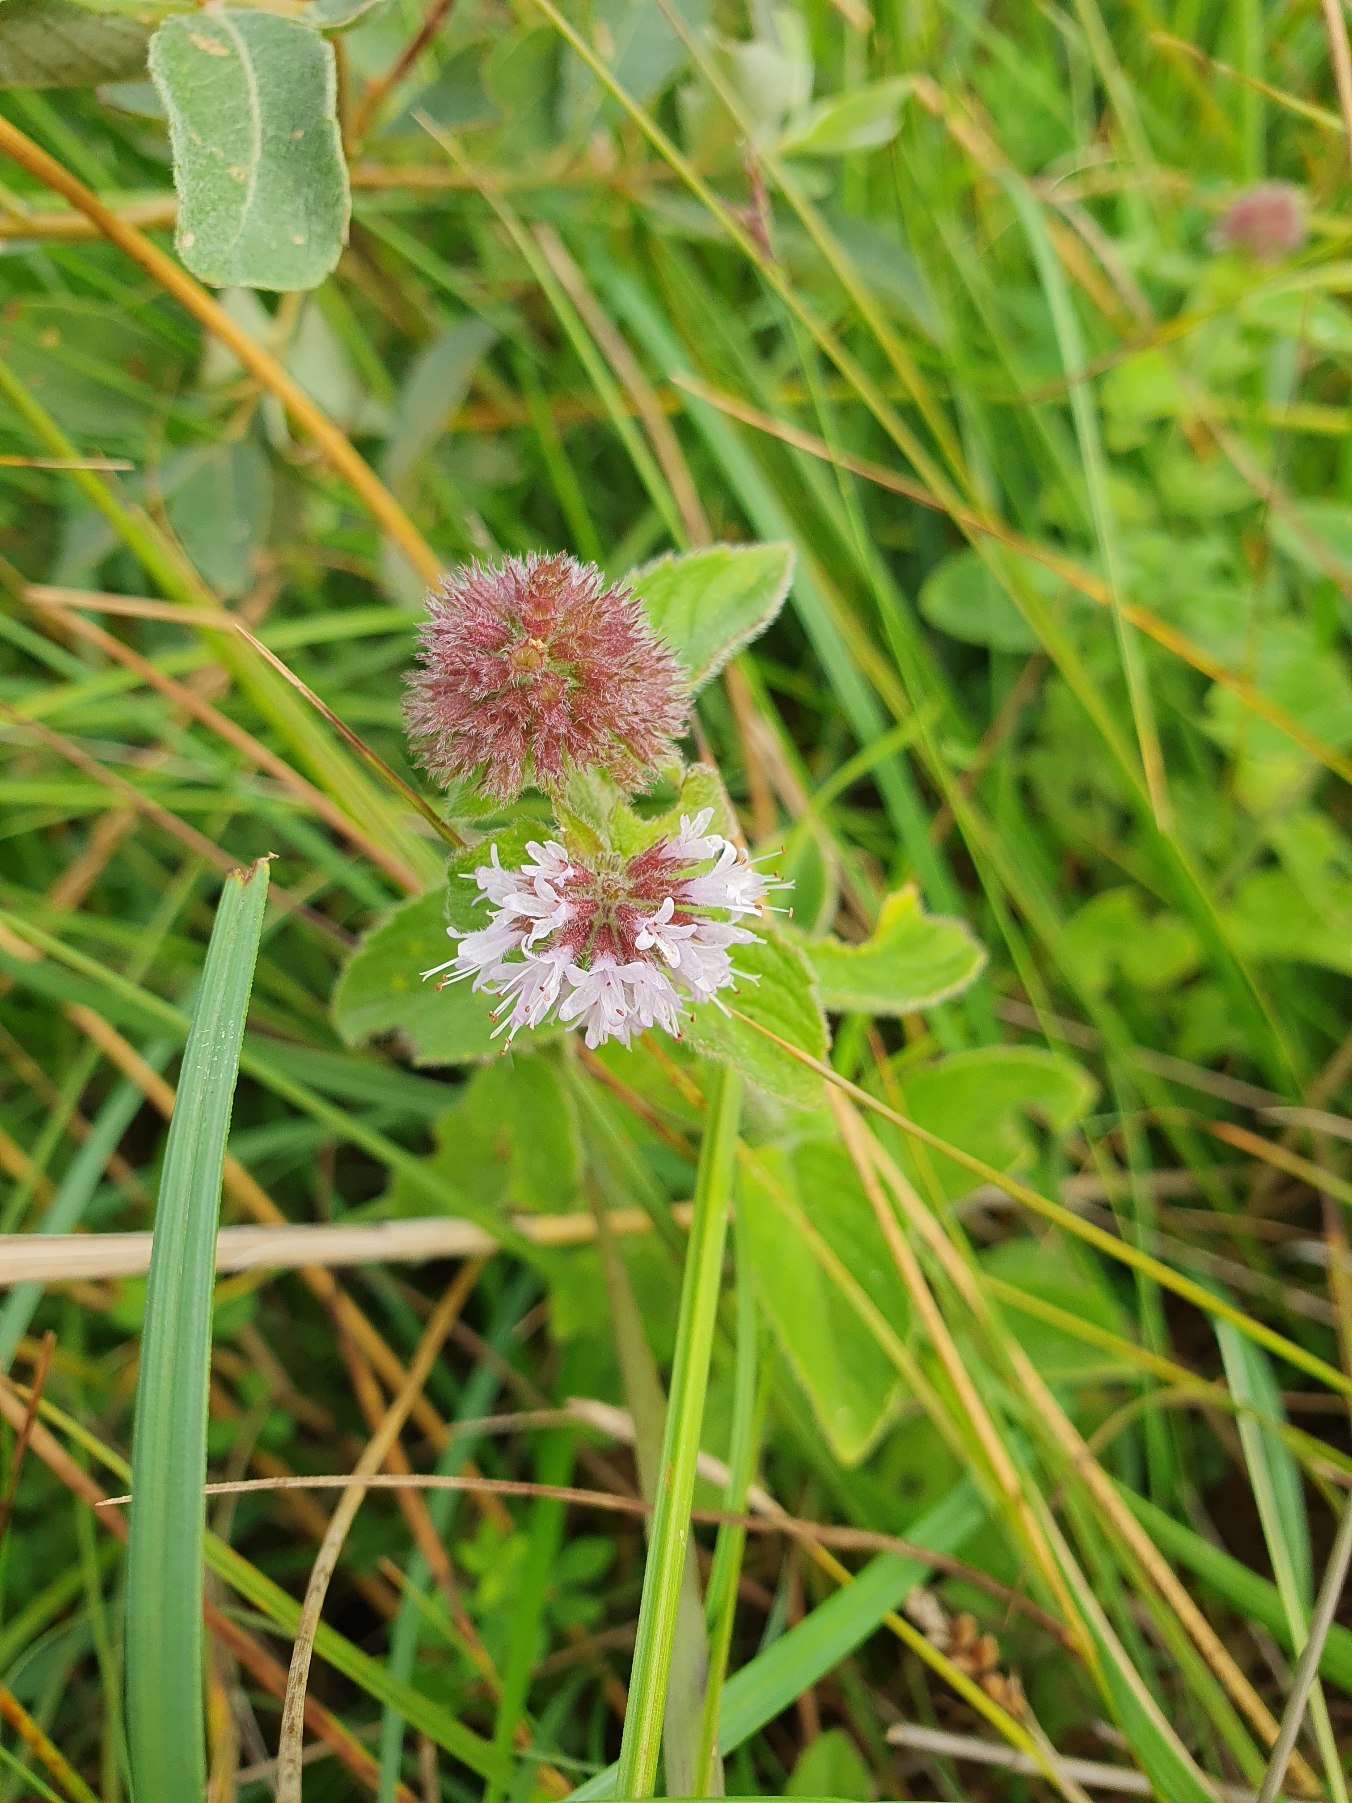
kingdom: Plantae
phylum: Tracheophyta
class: Magnoliopsida
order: Lamiales
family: Lamiaceae
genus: Mentha
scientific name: Mentha aquatica
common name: Vand-mynte
